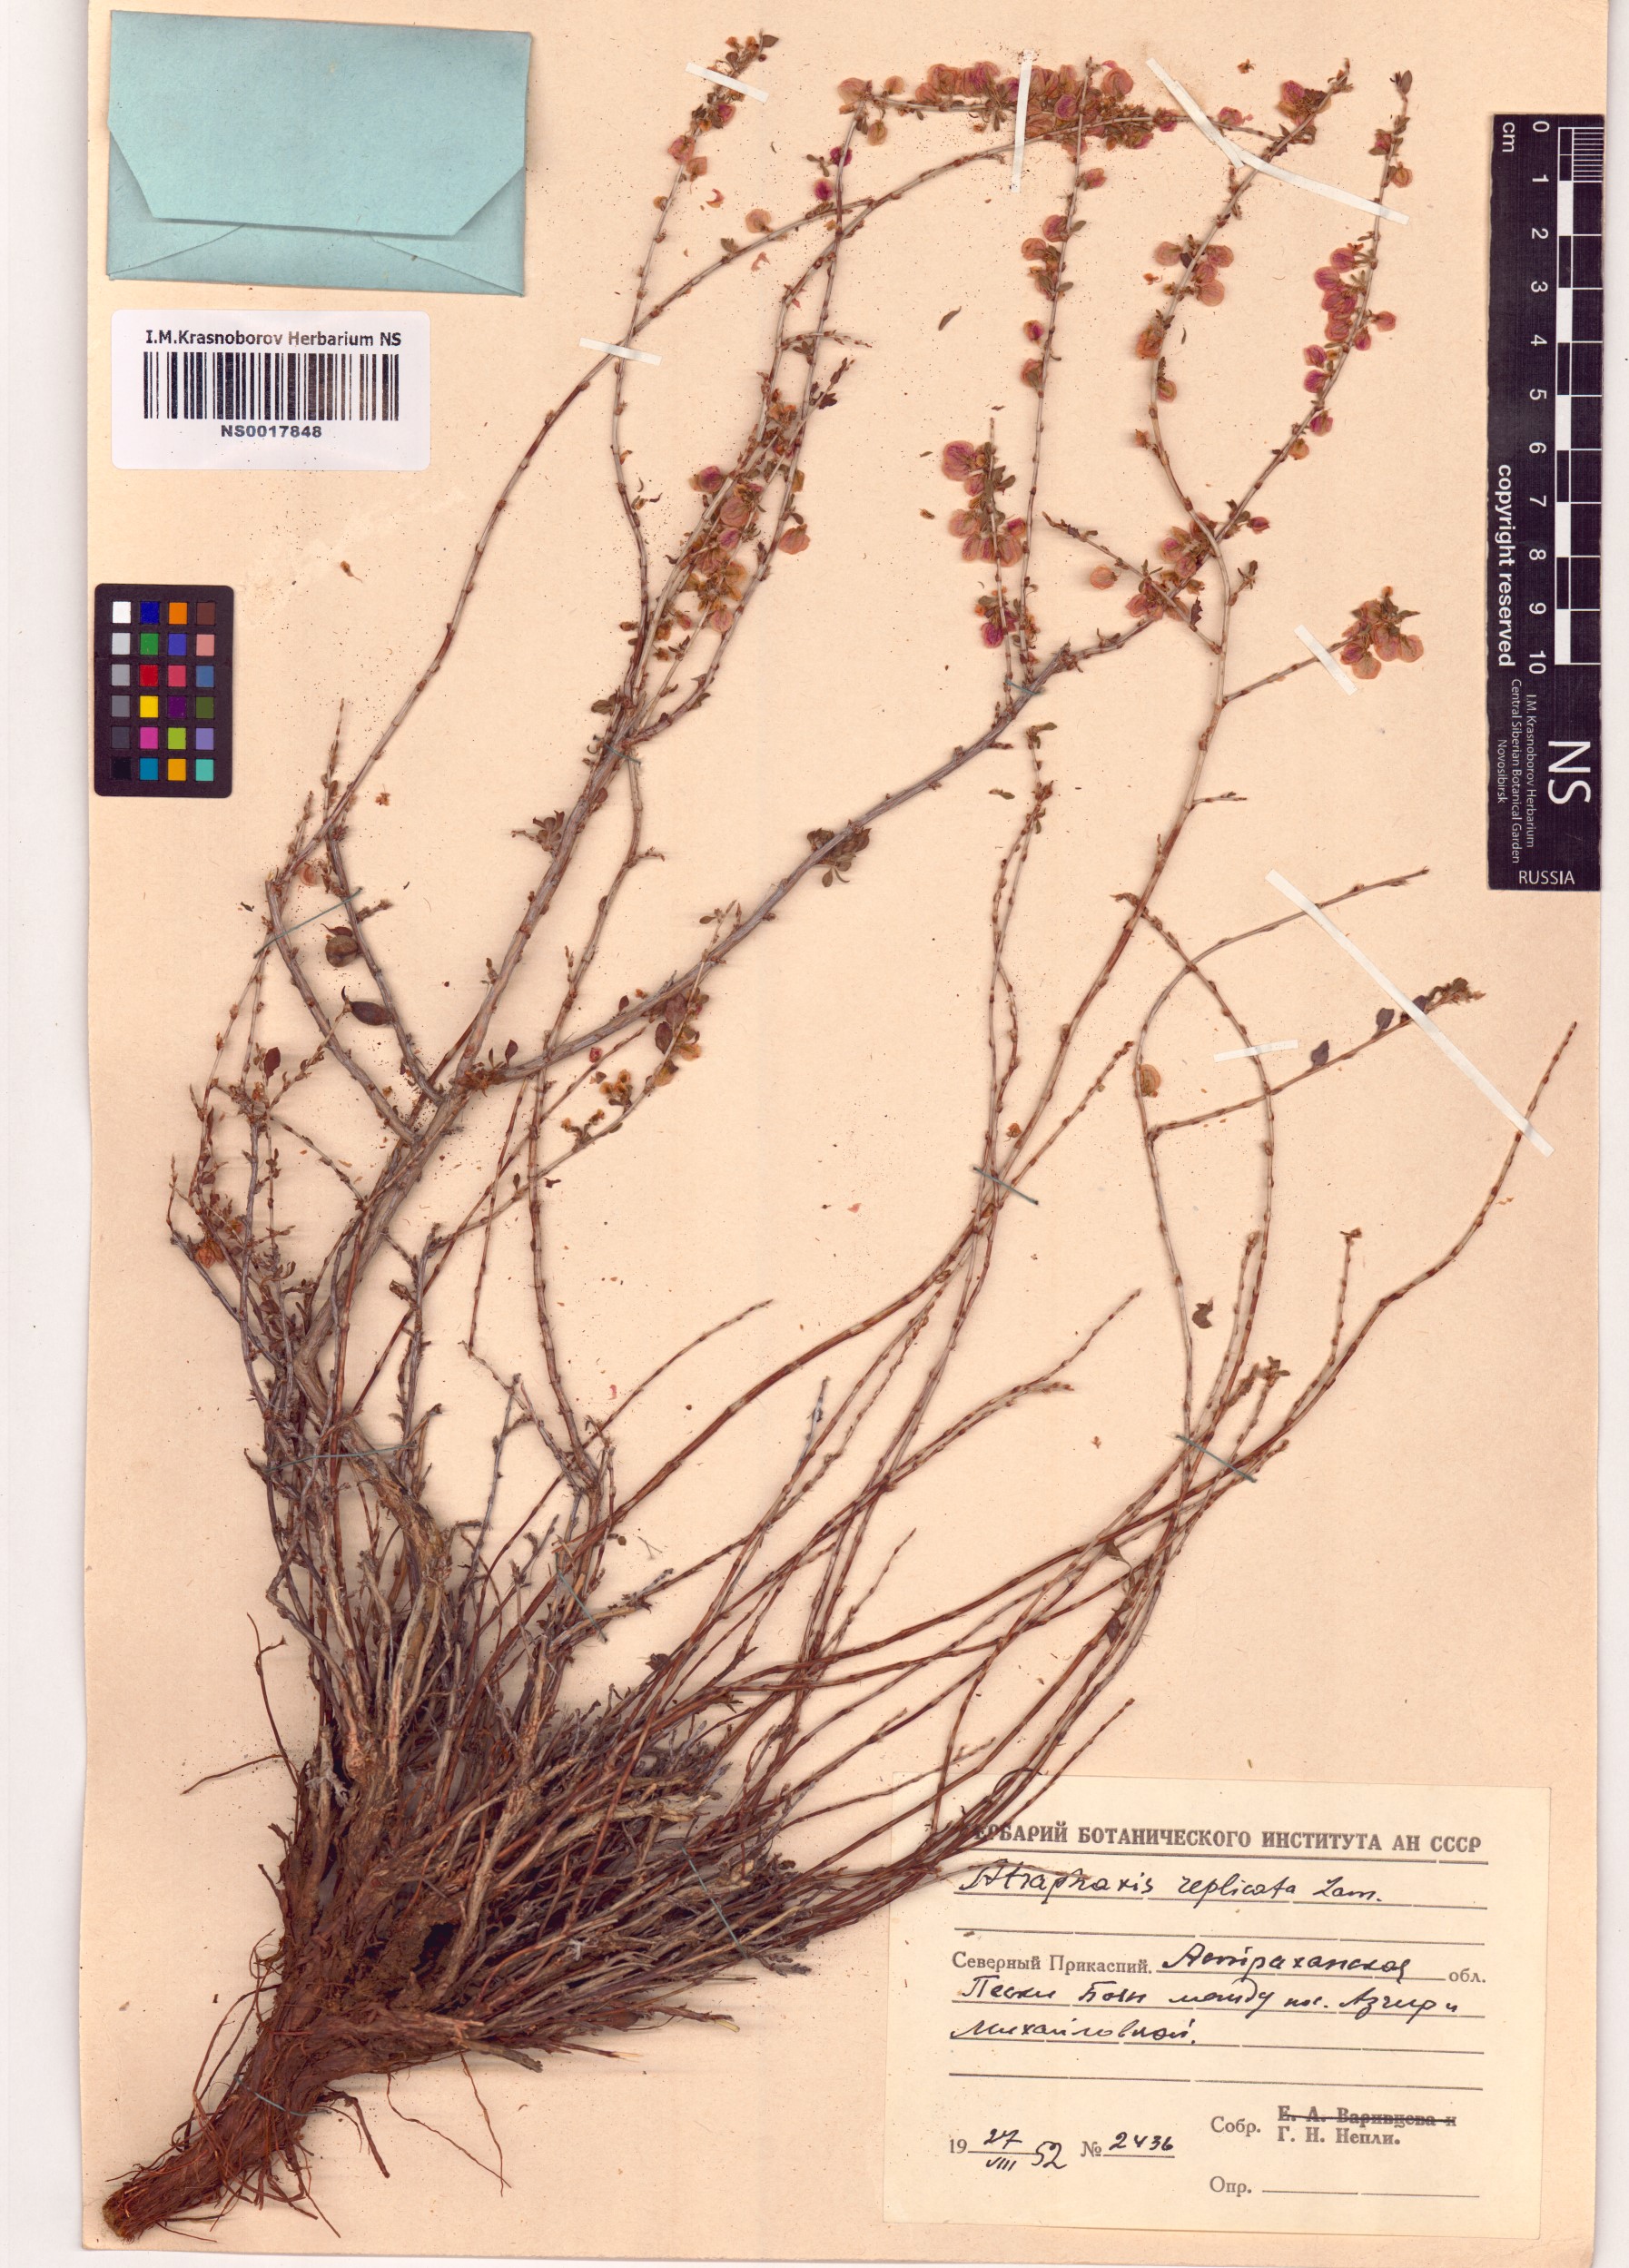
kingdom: Plantae
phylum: Tracheophyta
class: Magnoliopsida
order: Caryophyllales
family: Polygonaceae
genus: Atraphaxis
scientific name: Atraphaxis replicata
